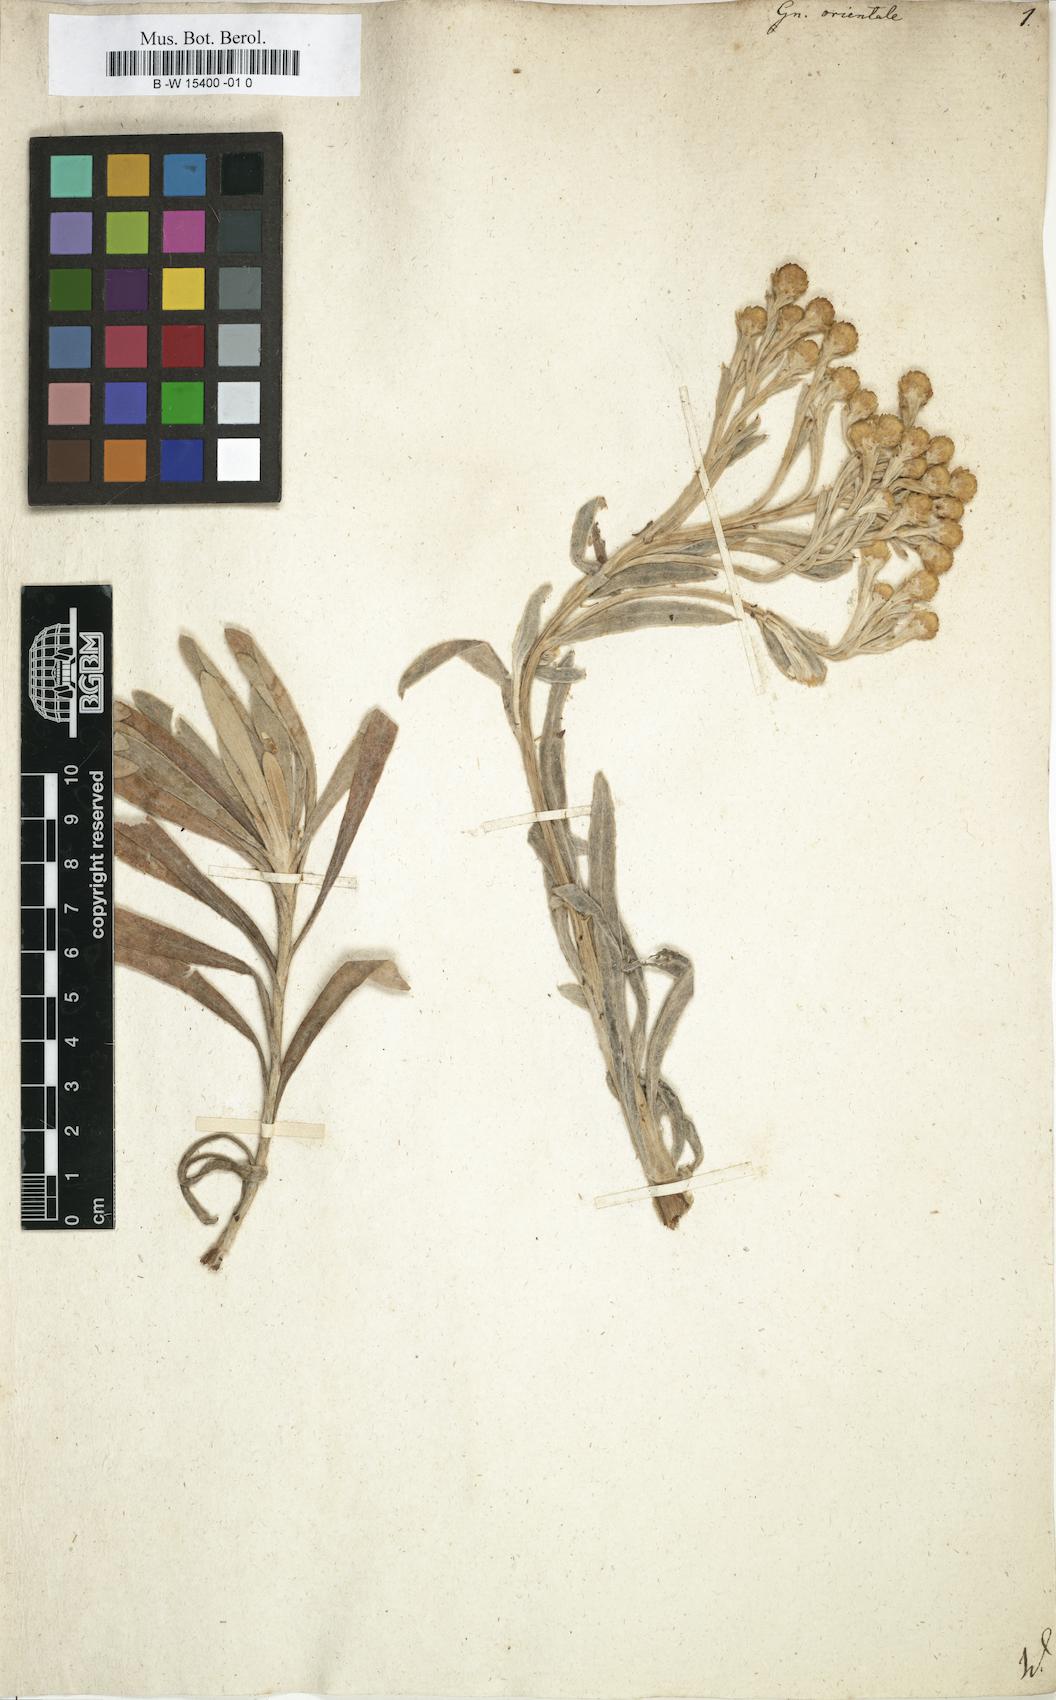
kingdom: Plantae
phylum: Tracheophyta
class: Magnoliopsida
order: Asterales
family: Asteraceae
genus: Helichrysum
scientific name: Helichrysum orientale
